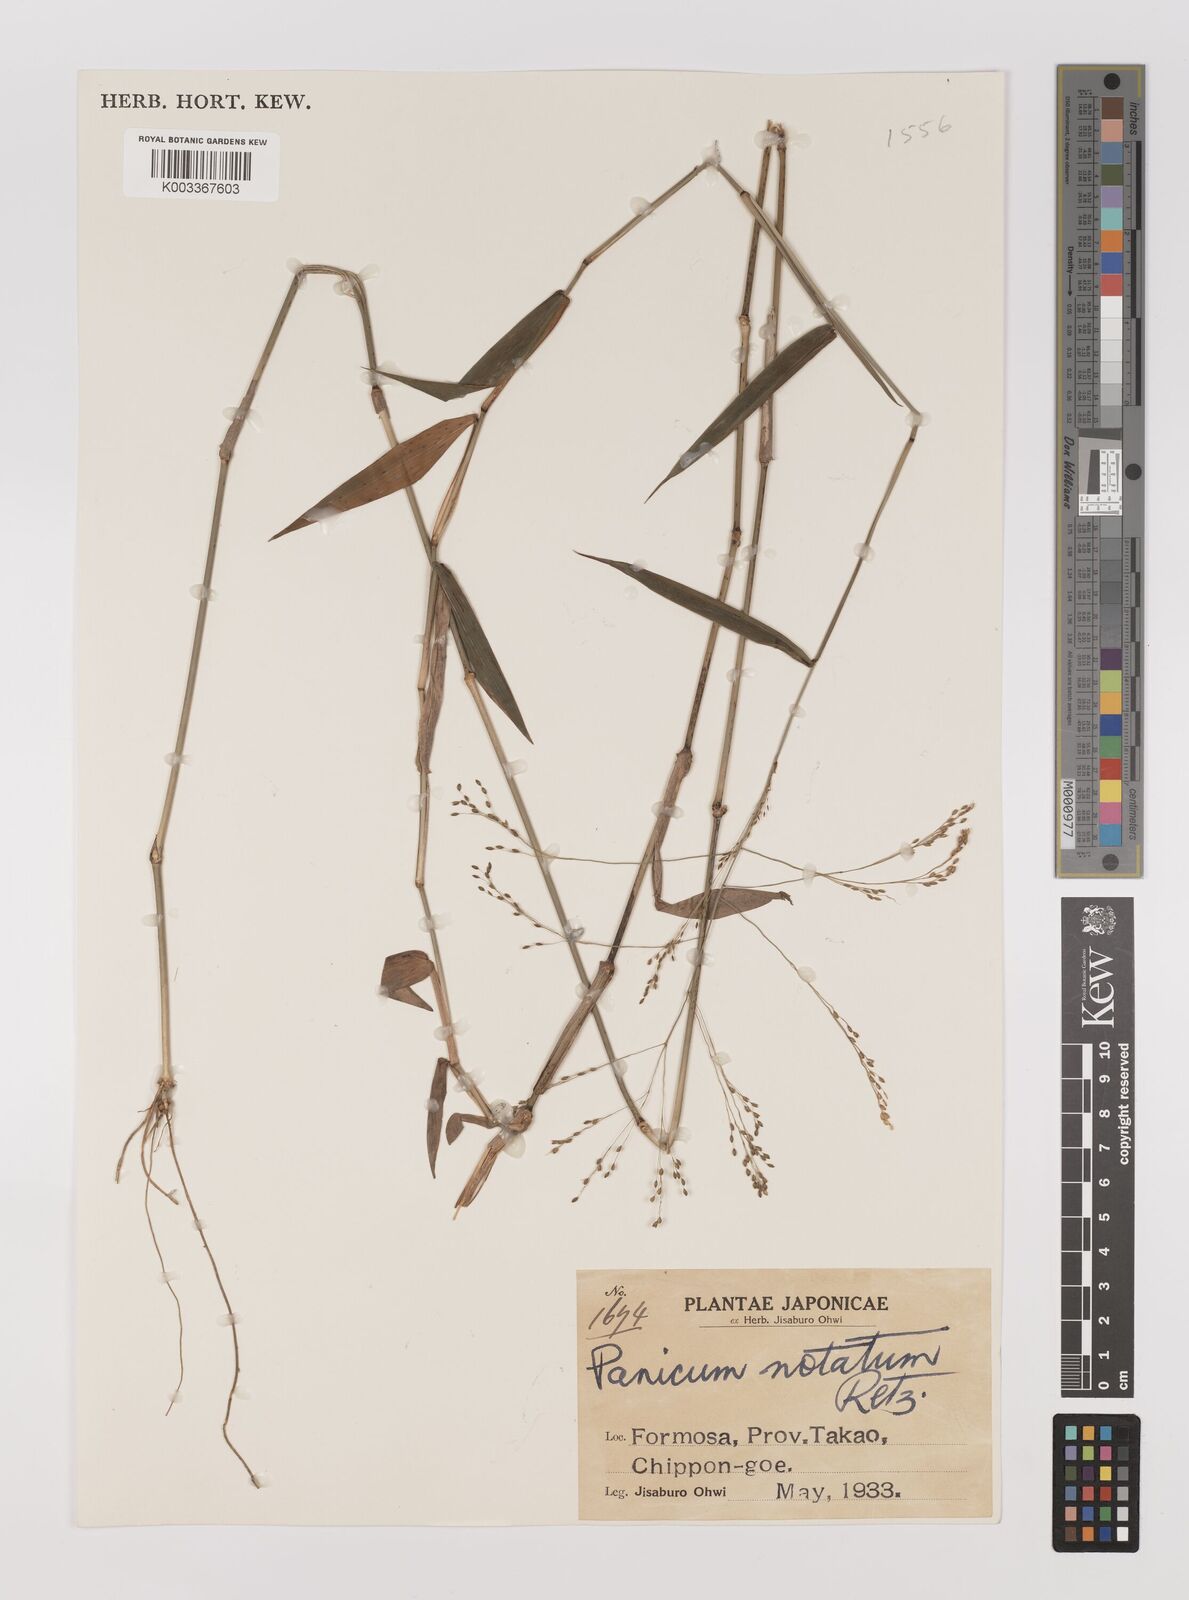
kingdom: Plantae
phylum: Tracheophyta
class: Liliopsida
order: Poales
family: Poaceae
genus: Panicum
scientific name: Panicum notatum
